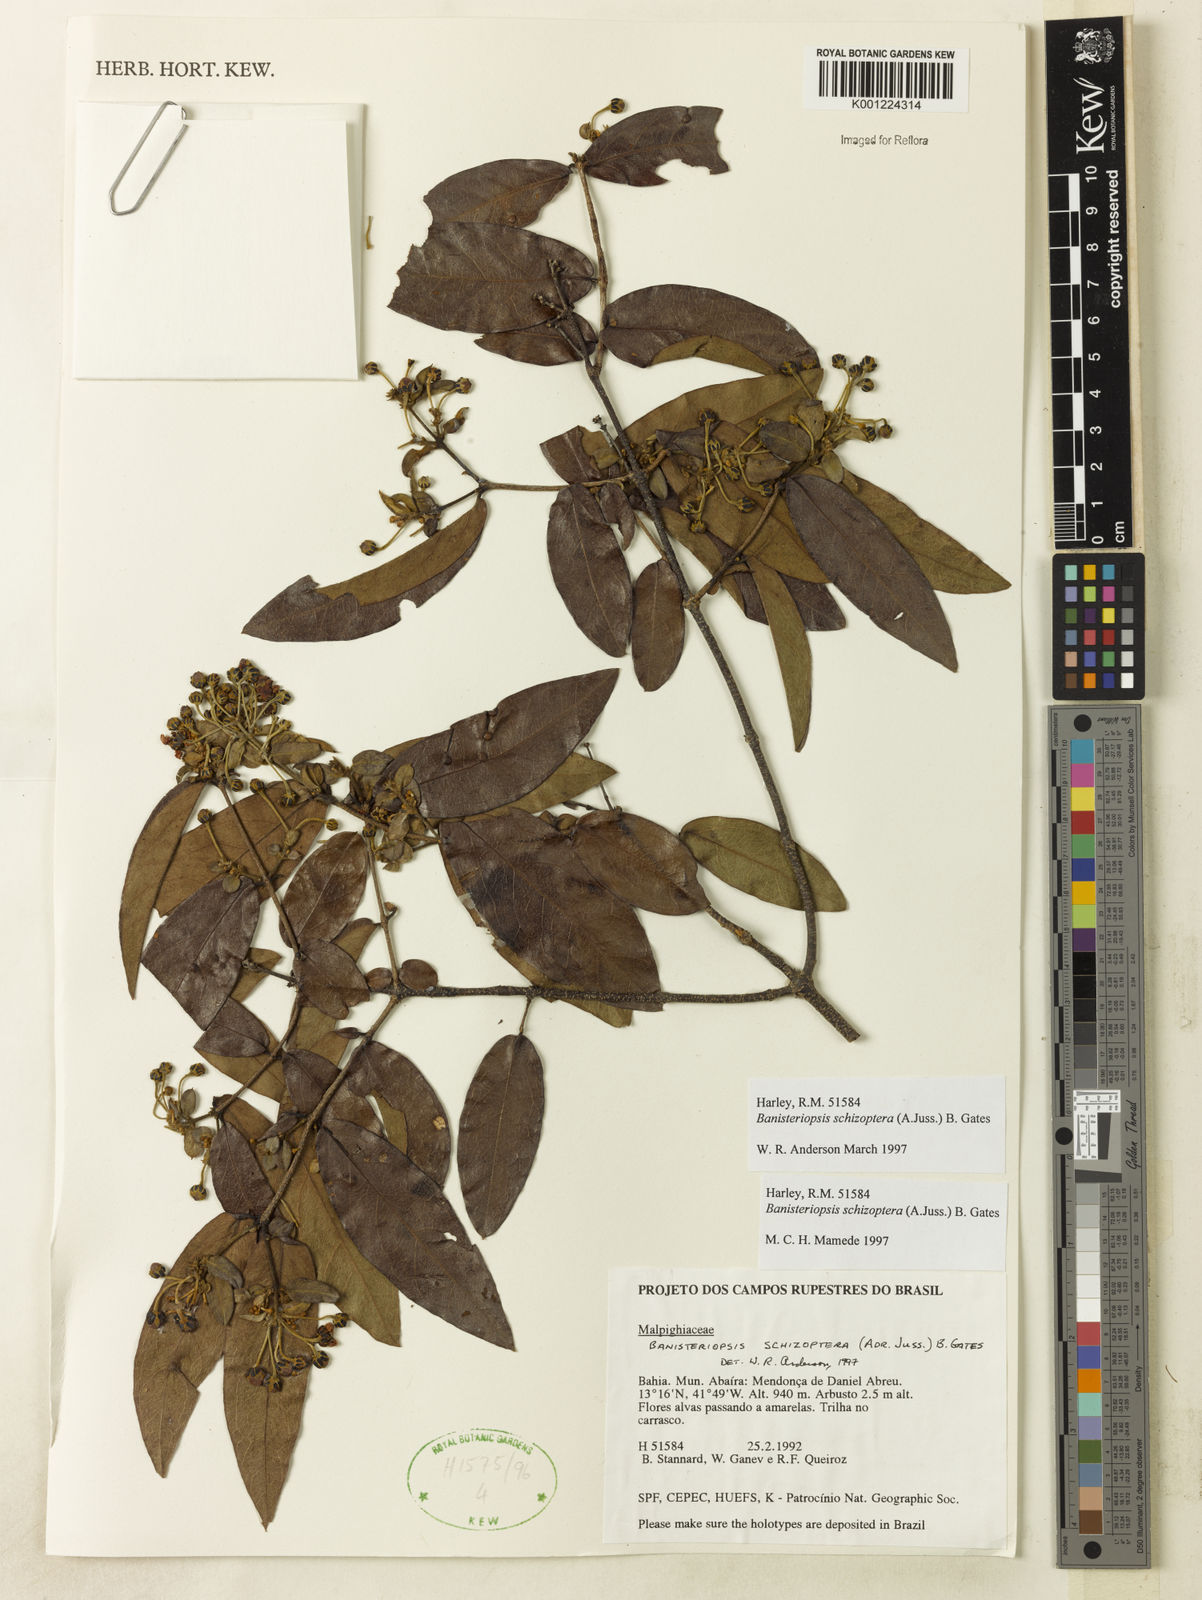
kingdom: Plantae
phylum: Tracheophyta
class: Magnoliopsida
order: Malpighiales
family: Malpighiaceae
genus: Banisteriopsis
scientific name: Banisteriopsis schizoptera
